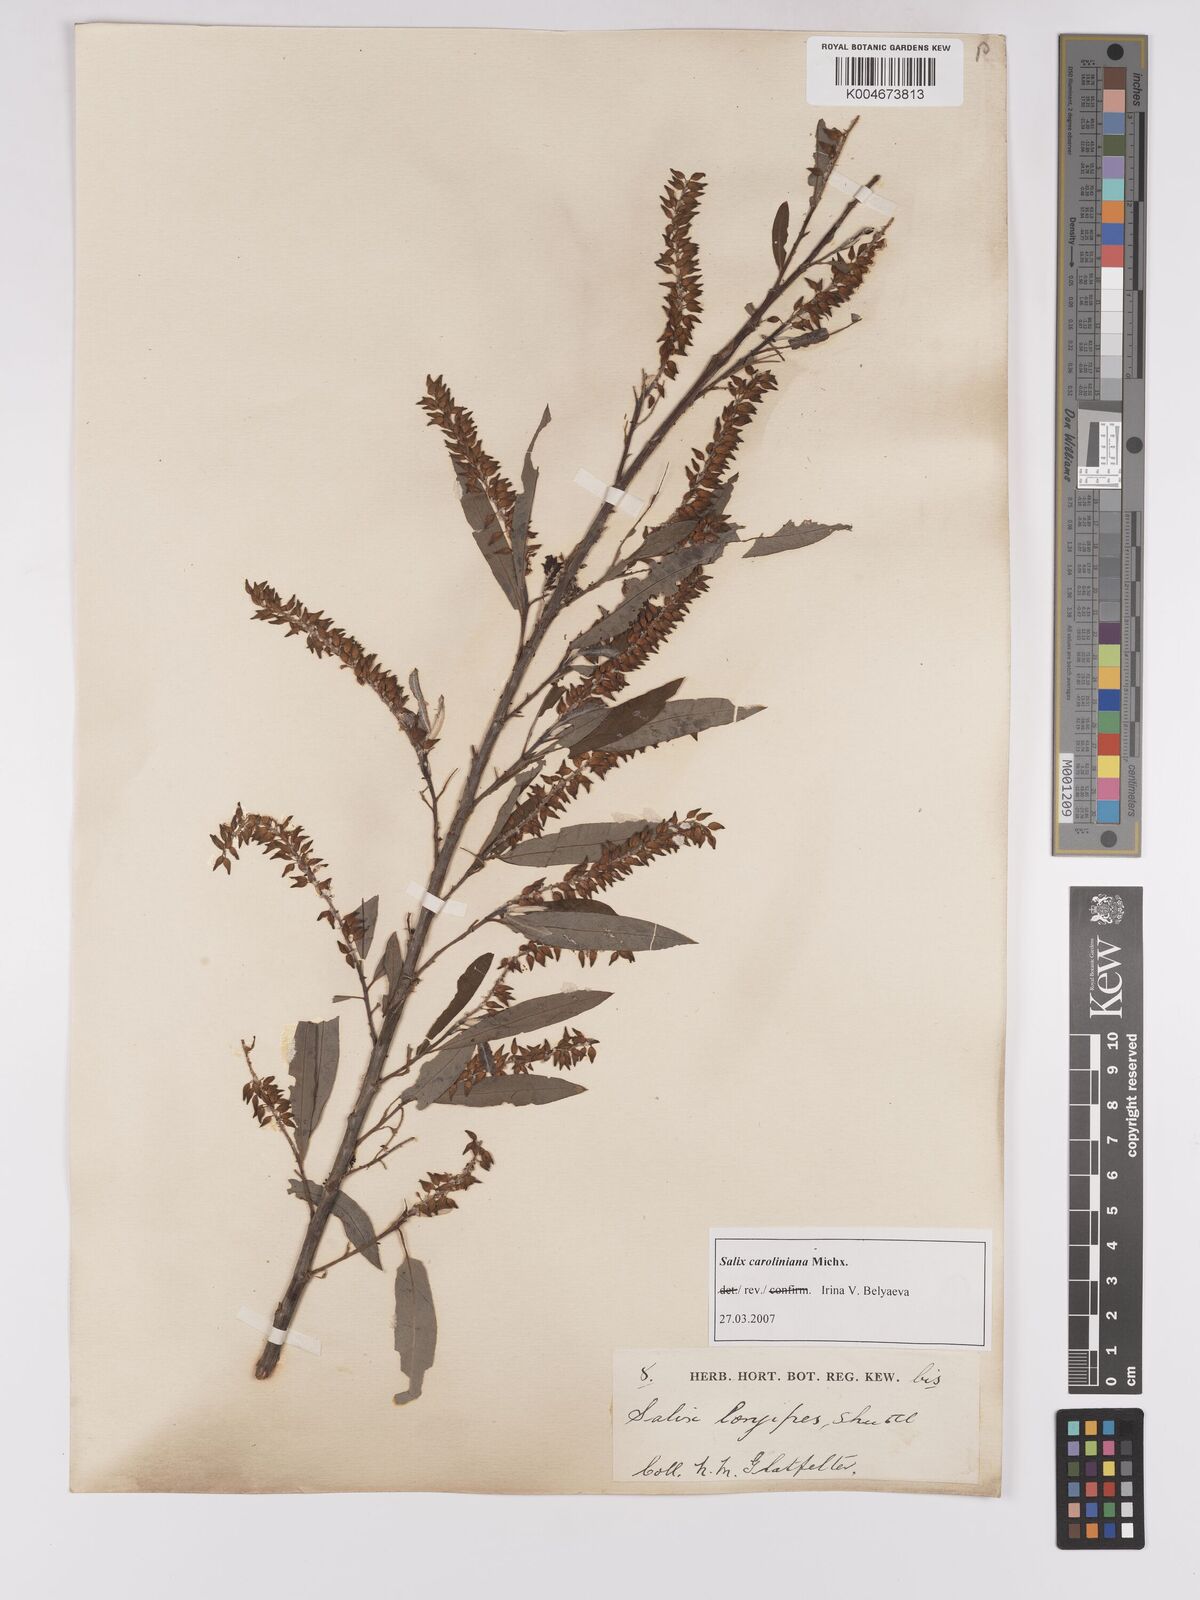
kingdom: Plantae
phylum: Tracheophyta
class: Magnoliopsida
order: Malpighiales
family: Salicaceae
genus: Salix
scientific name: Salix caroliniana
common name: Carolina willow
